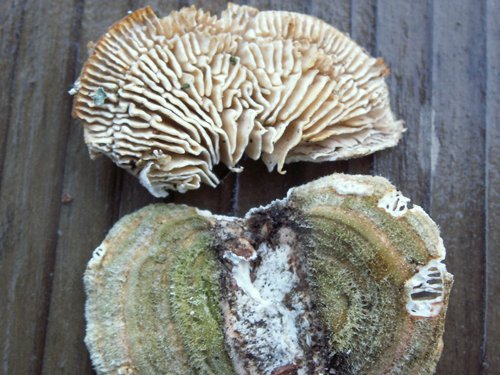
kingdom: Fungi
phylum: Basidiomycota
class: Agaricomycetes
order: Polyporales
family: Polyporaceae
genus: Lenzites
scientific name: Lenzites betulinus
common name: birke-læderporesvamp
